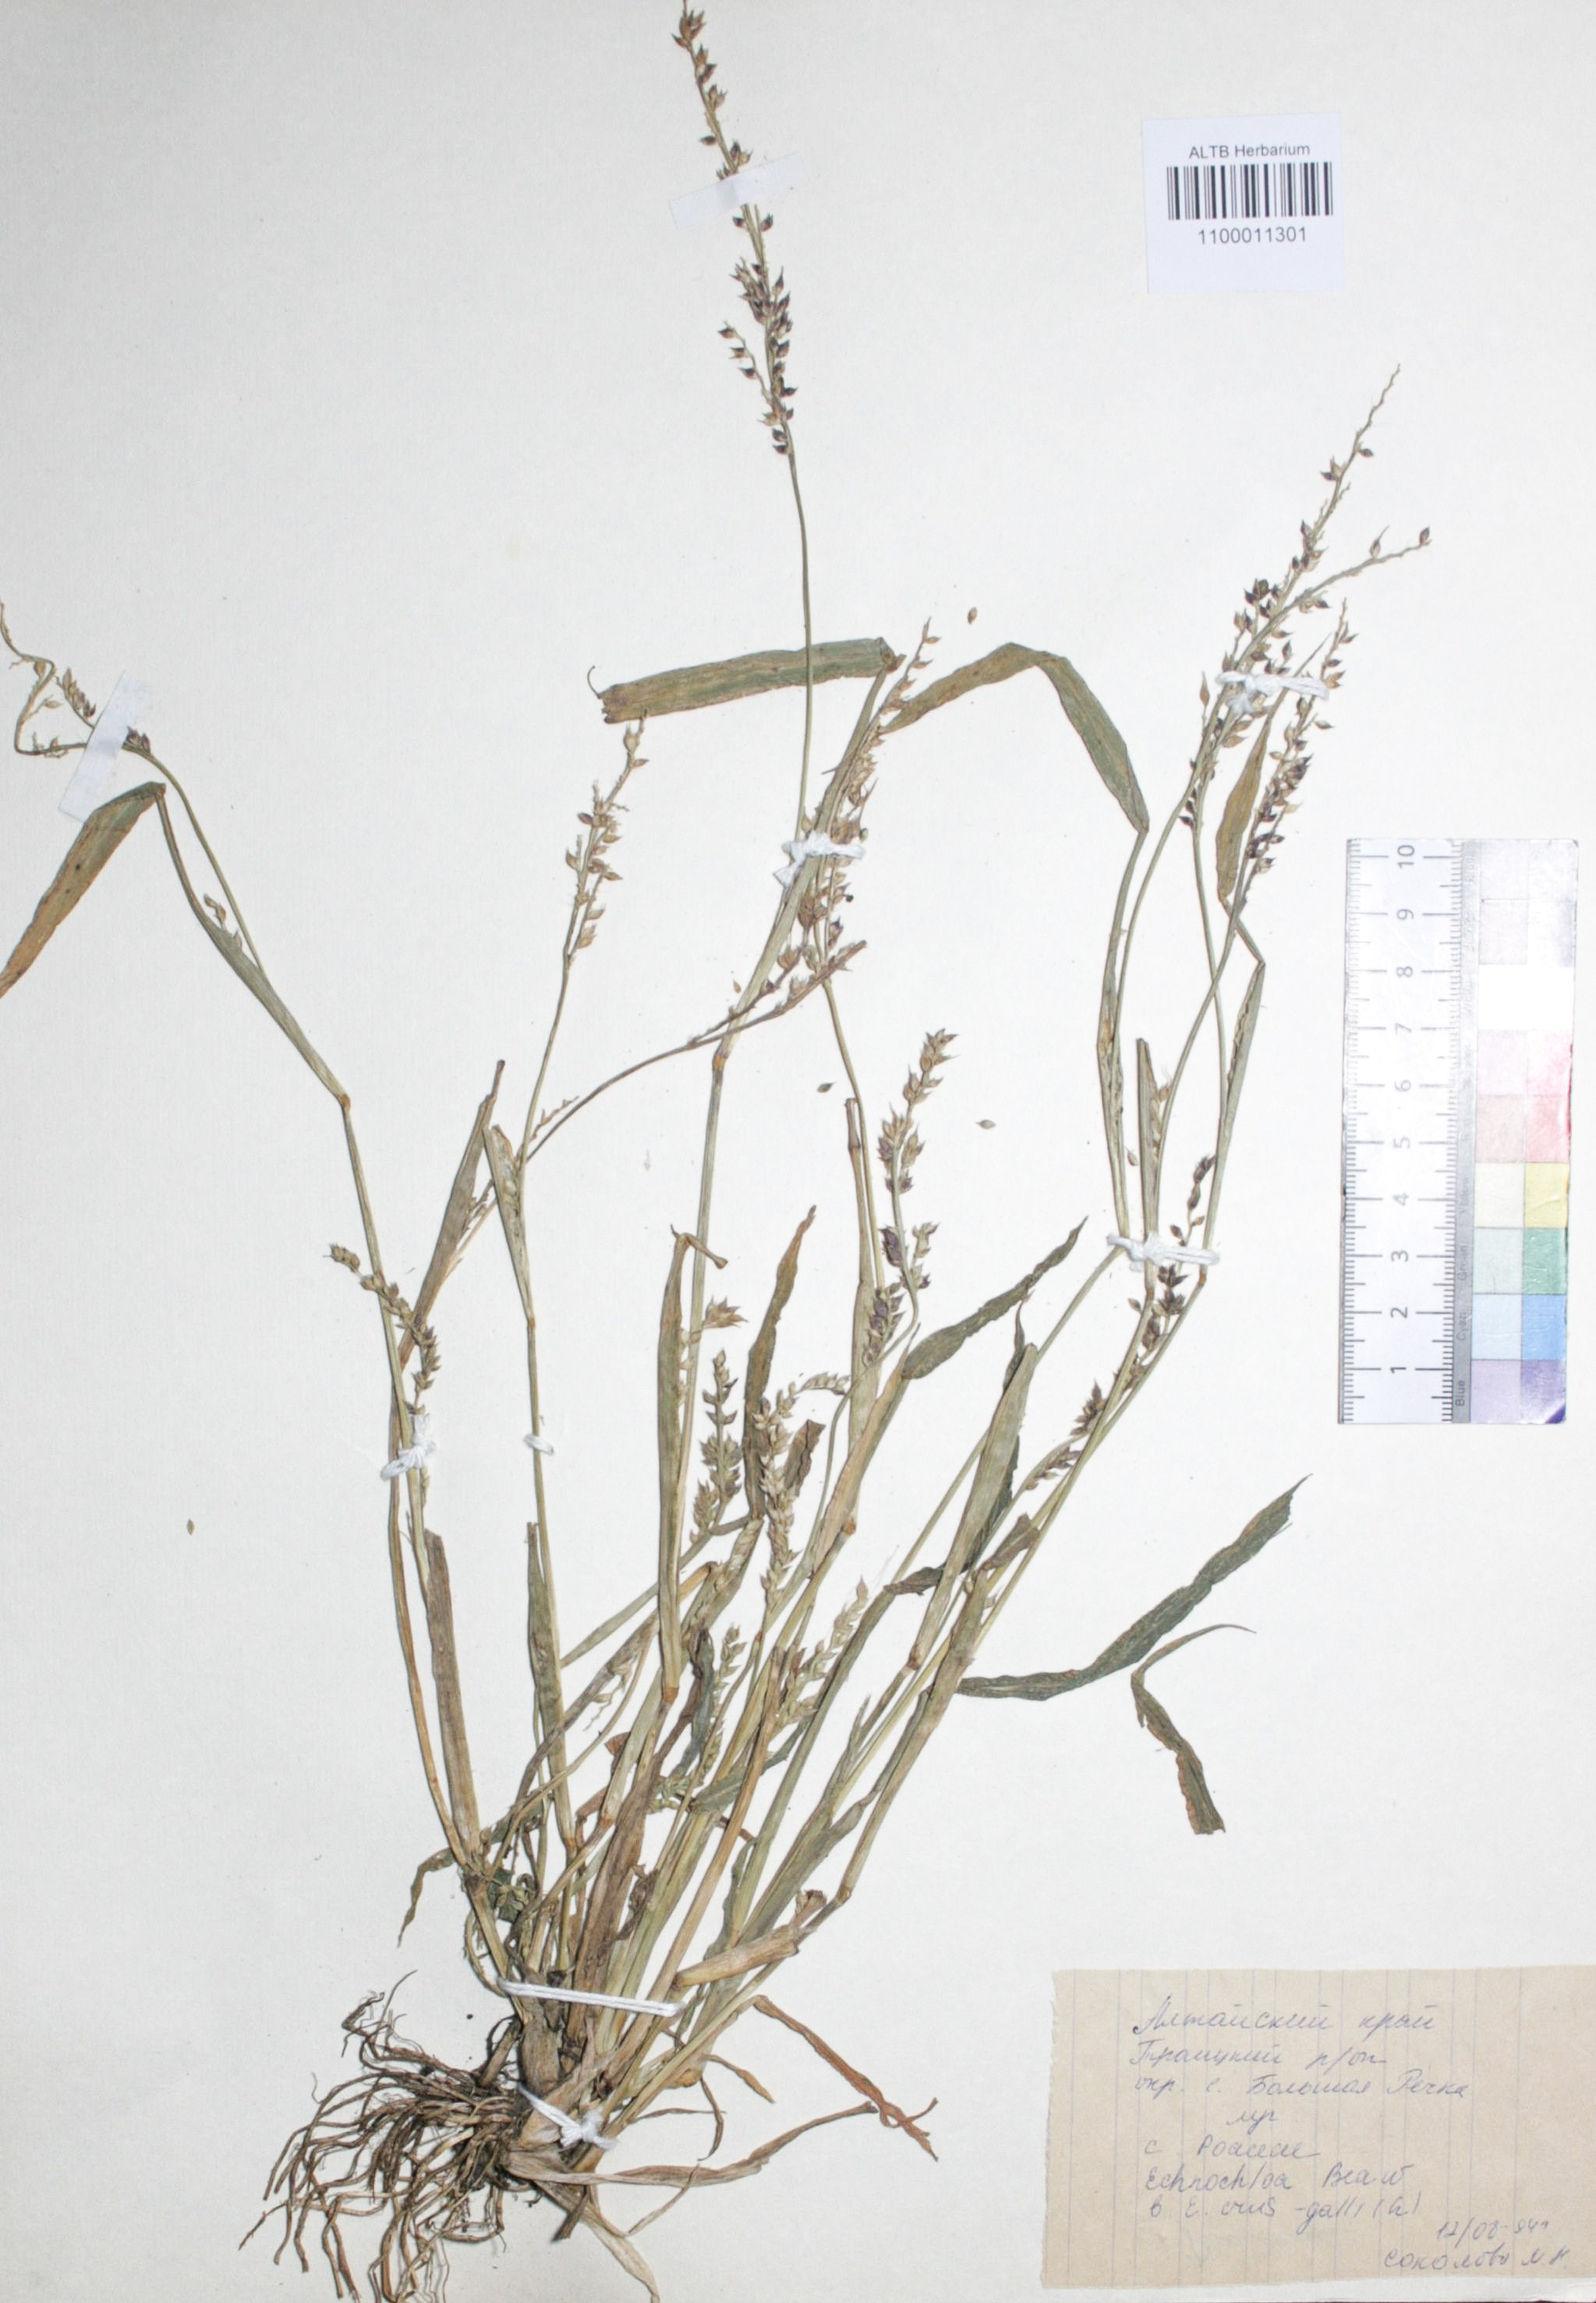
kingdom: Plantae
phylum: Tracheophyta
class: Liliopsida
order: Poales
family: Poaceae
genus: Echinochloa
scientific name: Echinochloa crus-galli
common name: Cockspur
